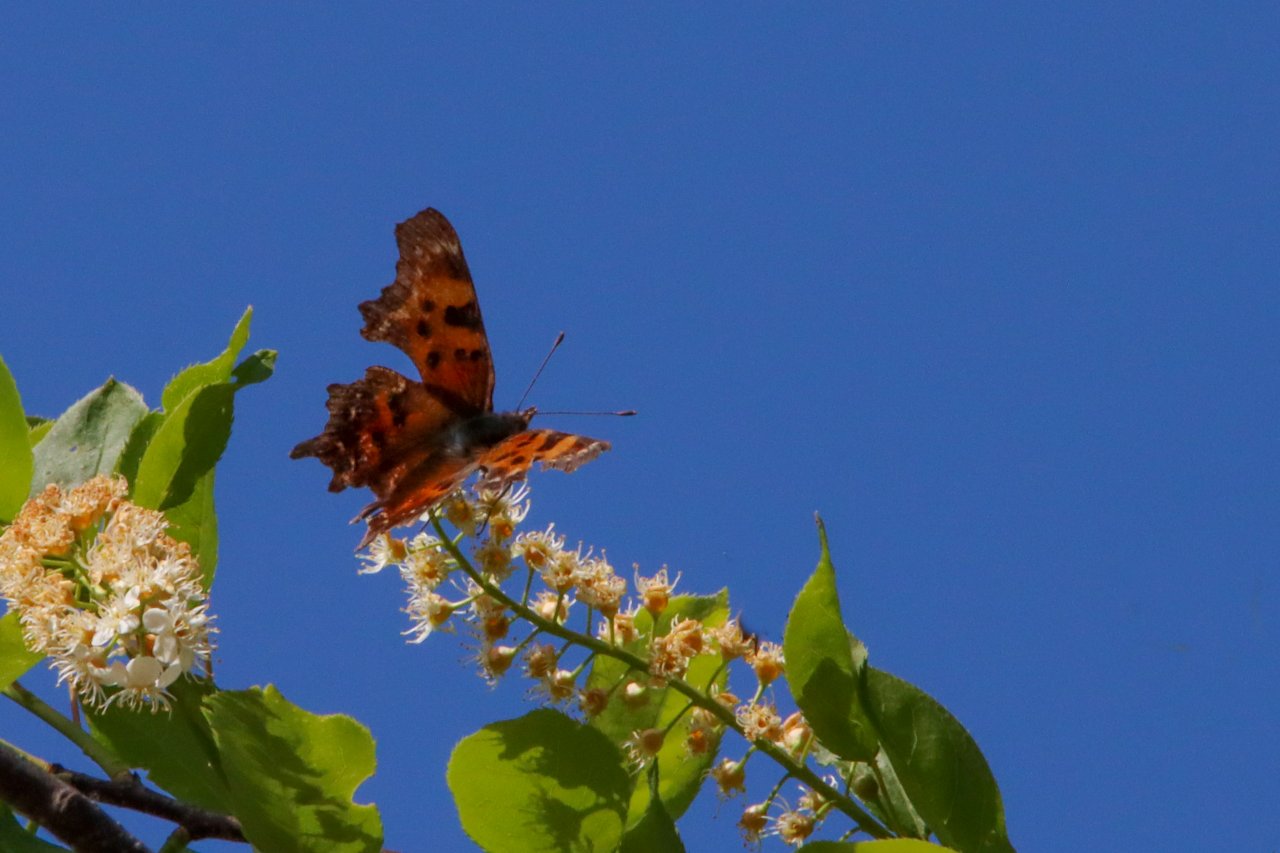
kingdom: Animalia
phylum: Arthropoda
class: Insecta
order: Lepidoptera
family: Nymphalidae
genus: Polygonia
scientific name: Polygonia faunus
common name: Green Comma
